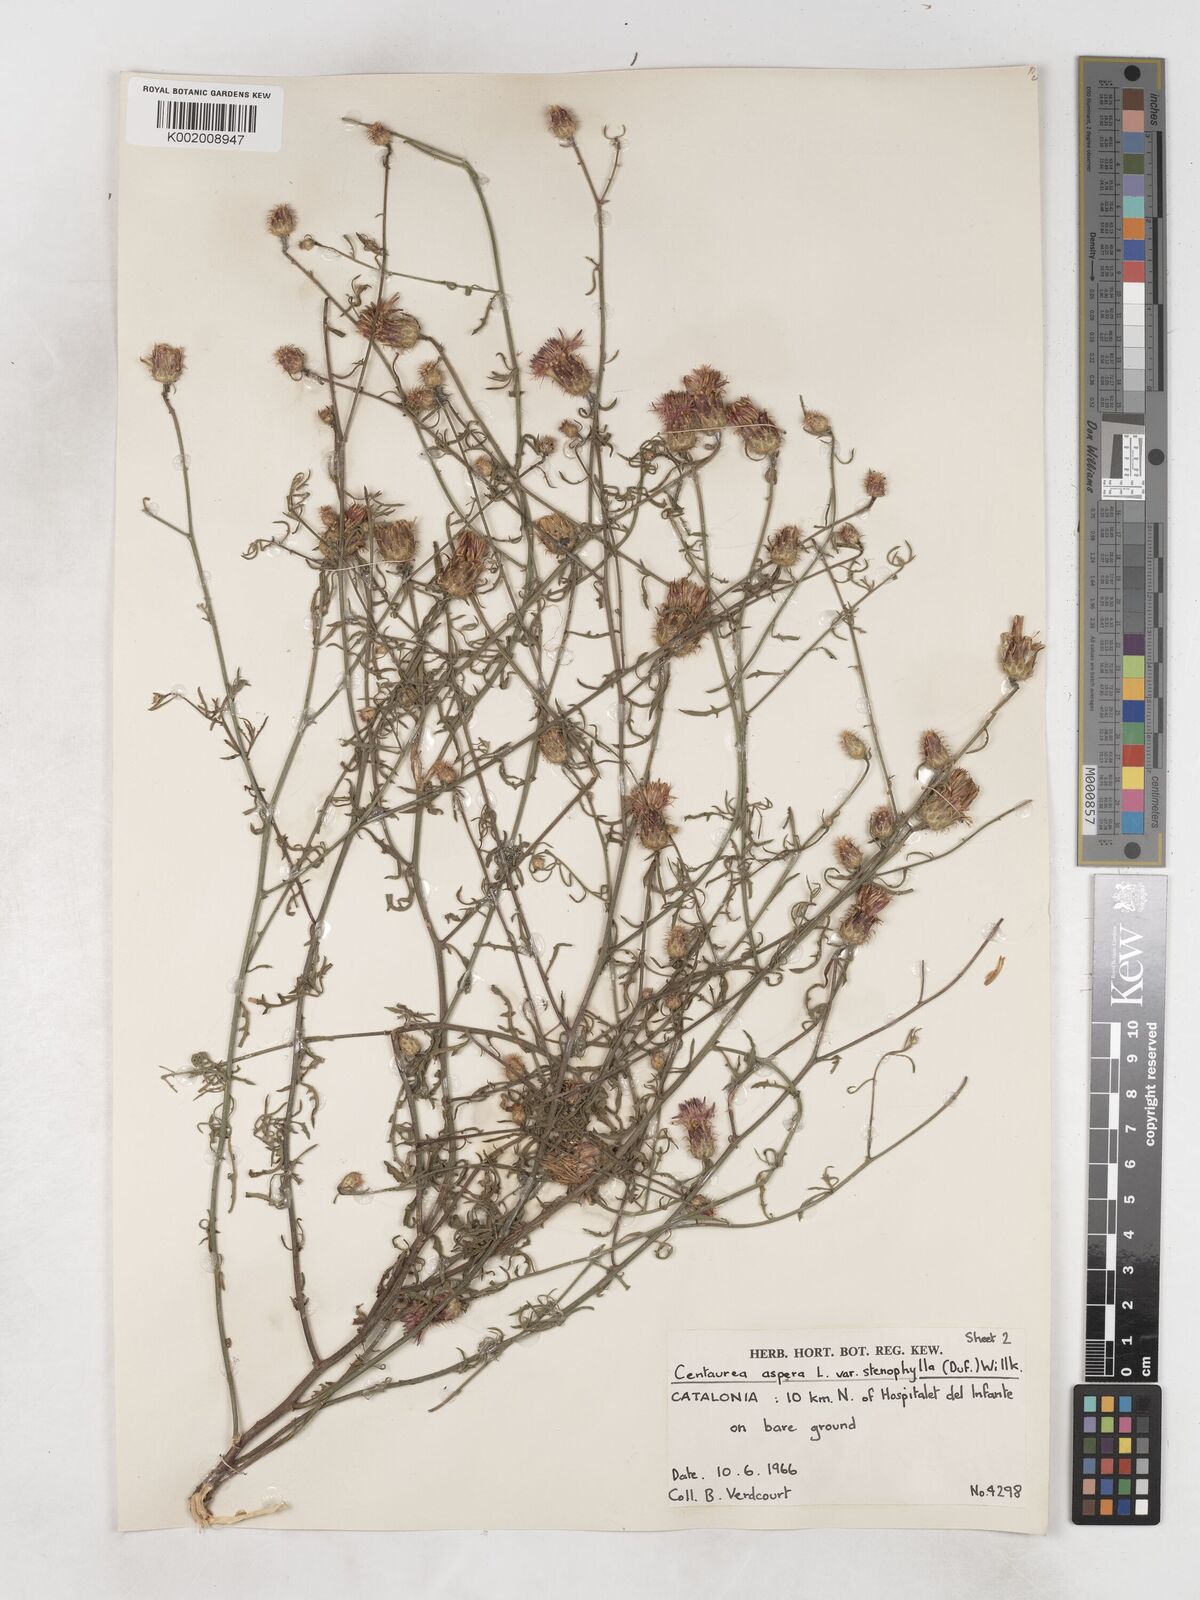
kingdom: Plantae
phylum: Tracheophyta
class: Magnoliopsida
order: Asterales
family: Asteraceae
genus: Centaurea
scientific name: Centaurea aspera
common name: Rough star-thistle
